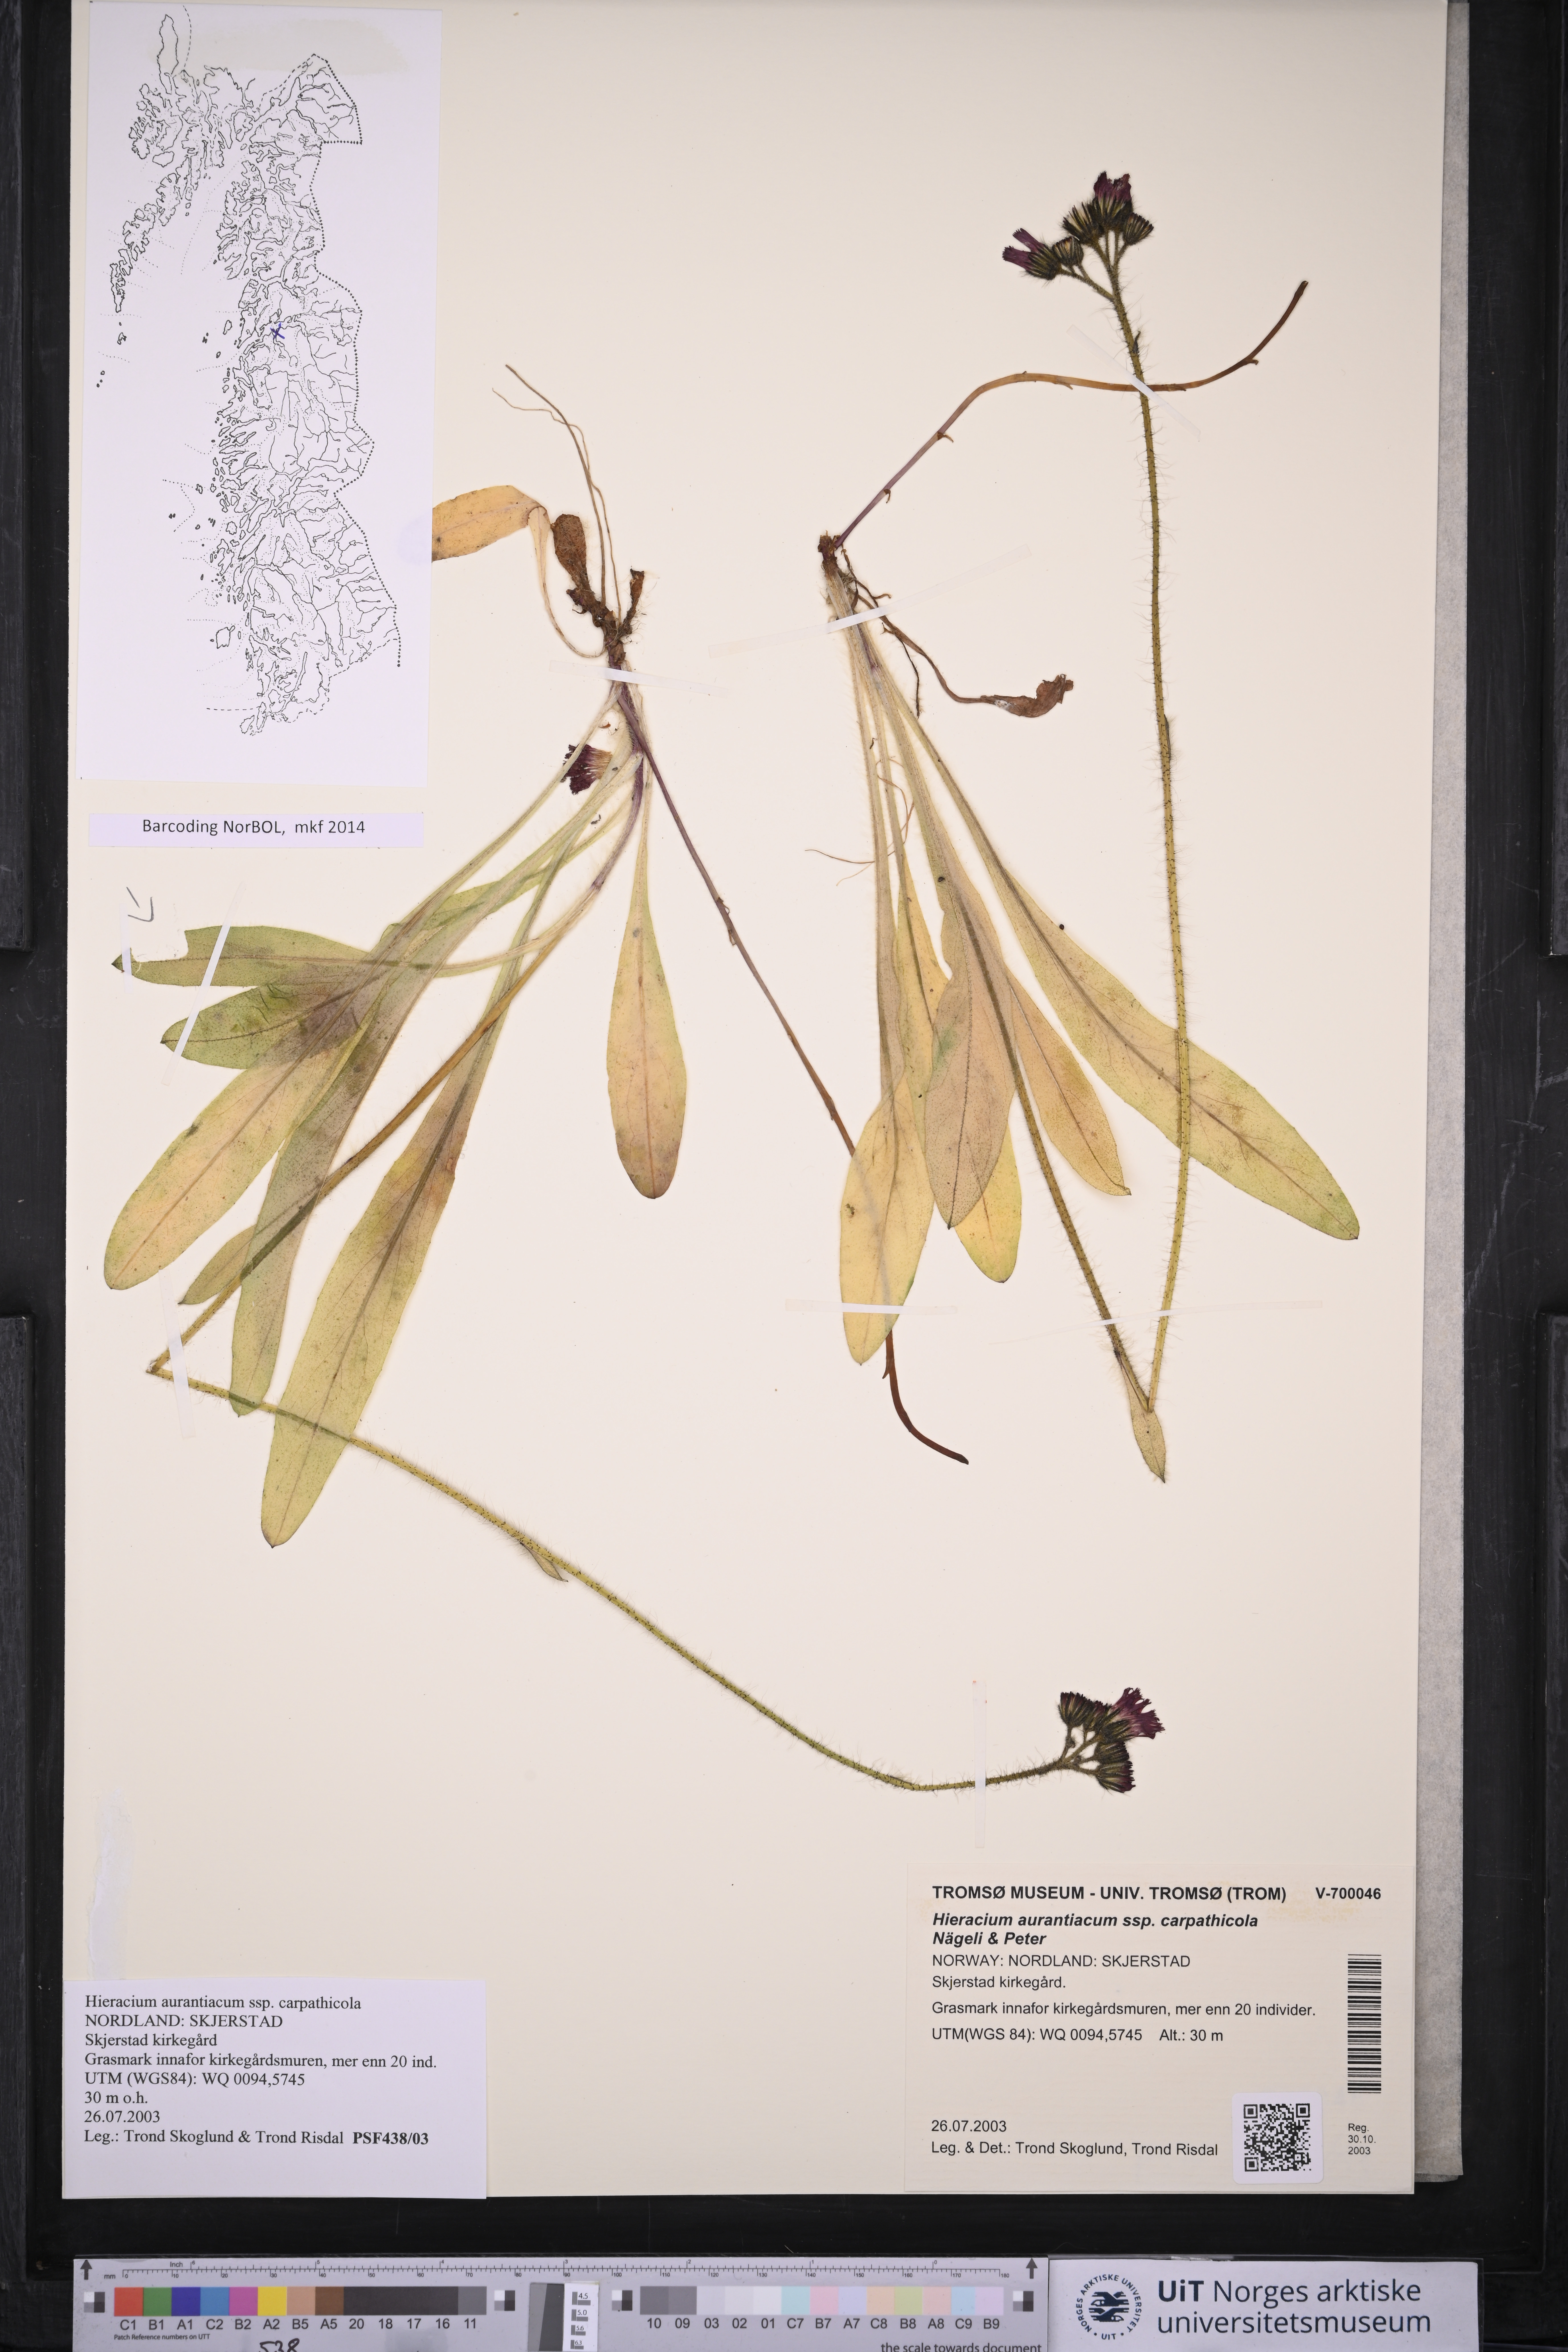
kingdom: Plantae
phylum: Tracheophyta
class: Magnoliopsida
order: Asterales
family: Asteraceae
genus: Pilosella
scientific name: Pilosella aurantiaca
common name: Fox-and-cubs
